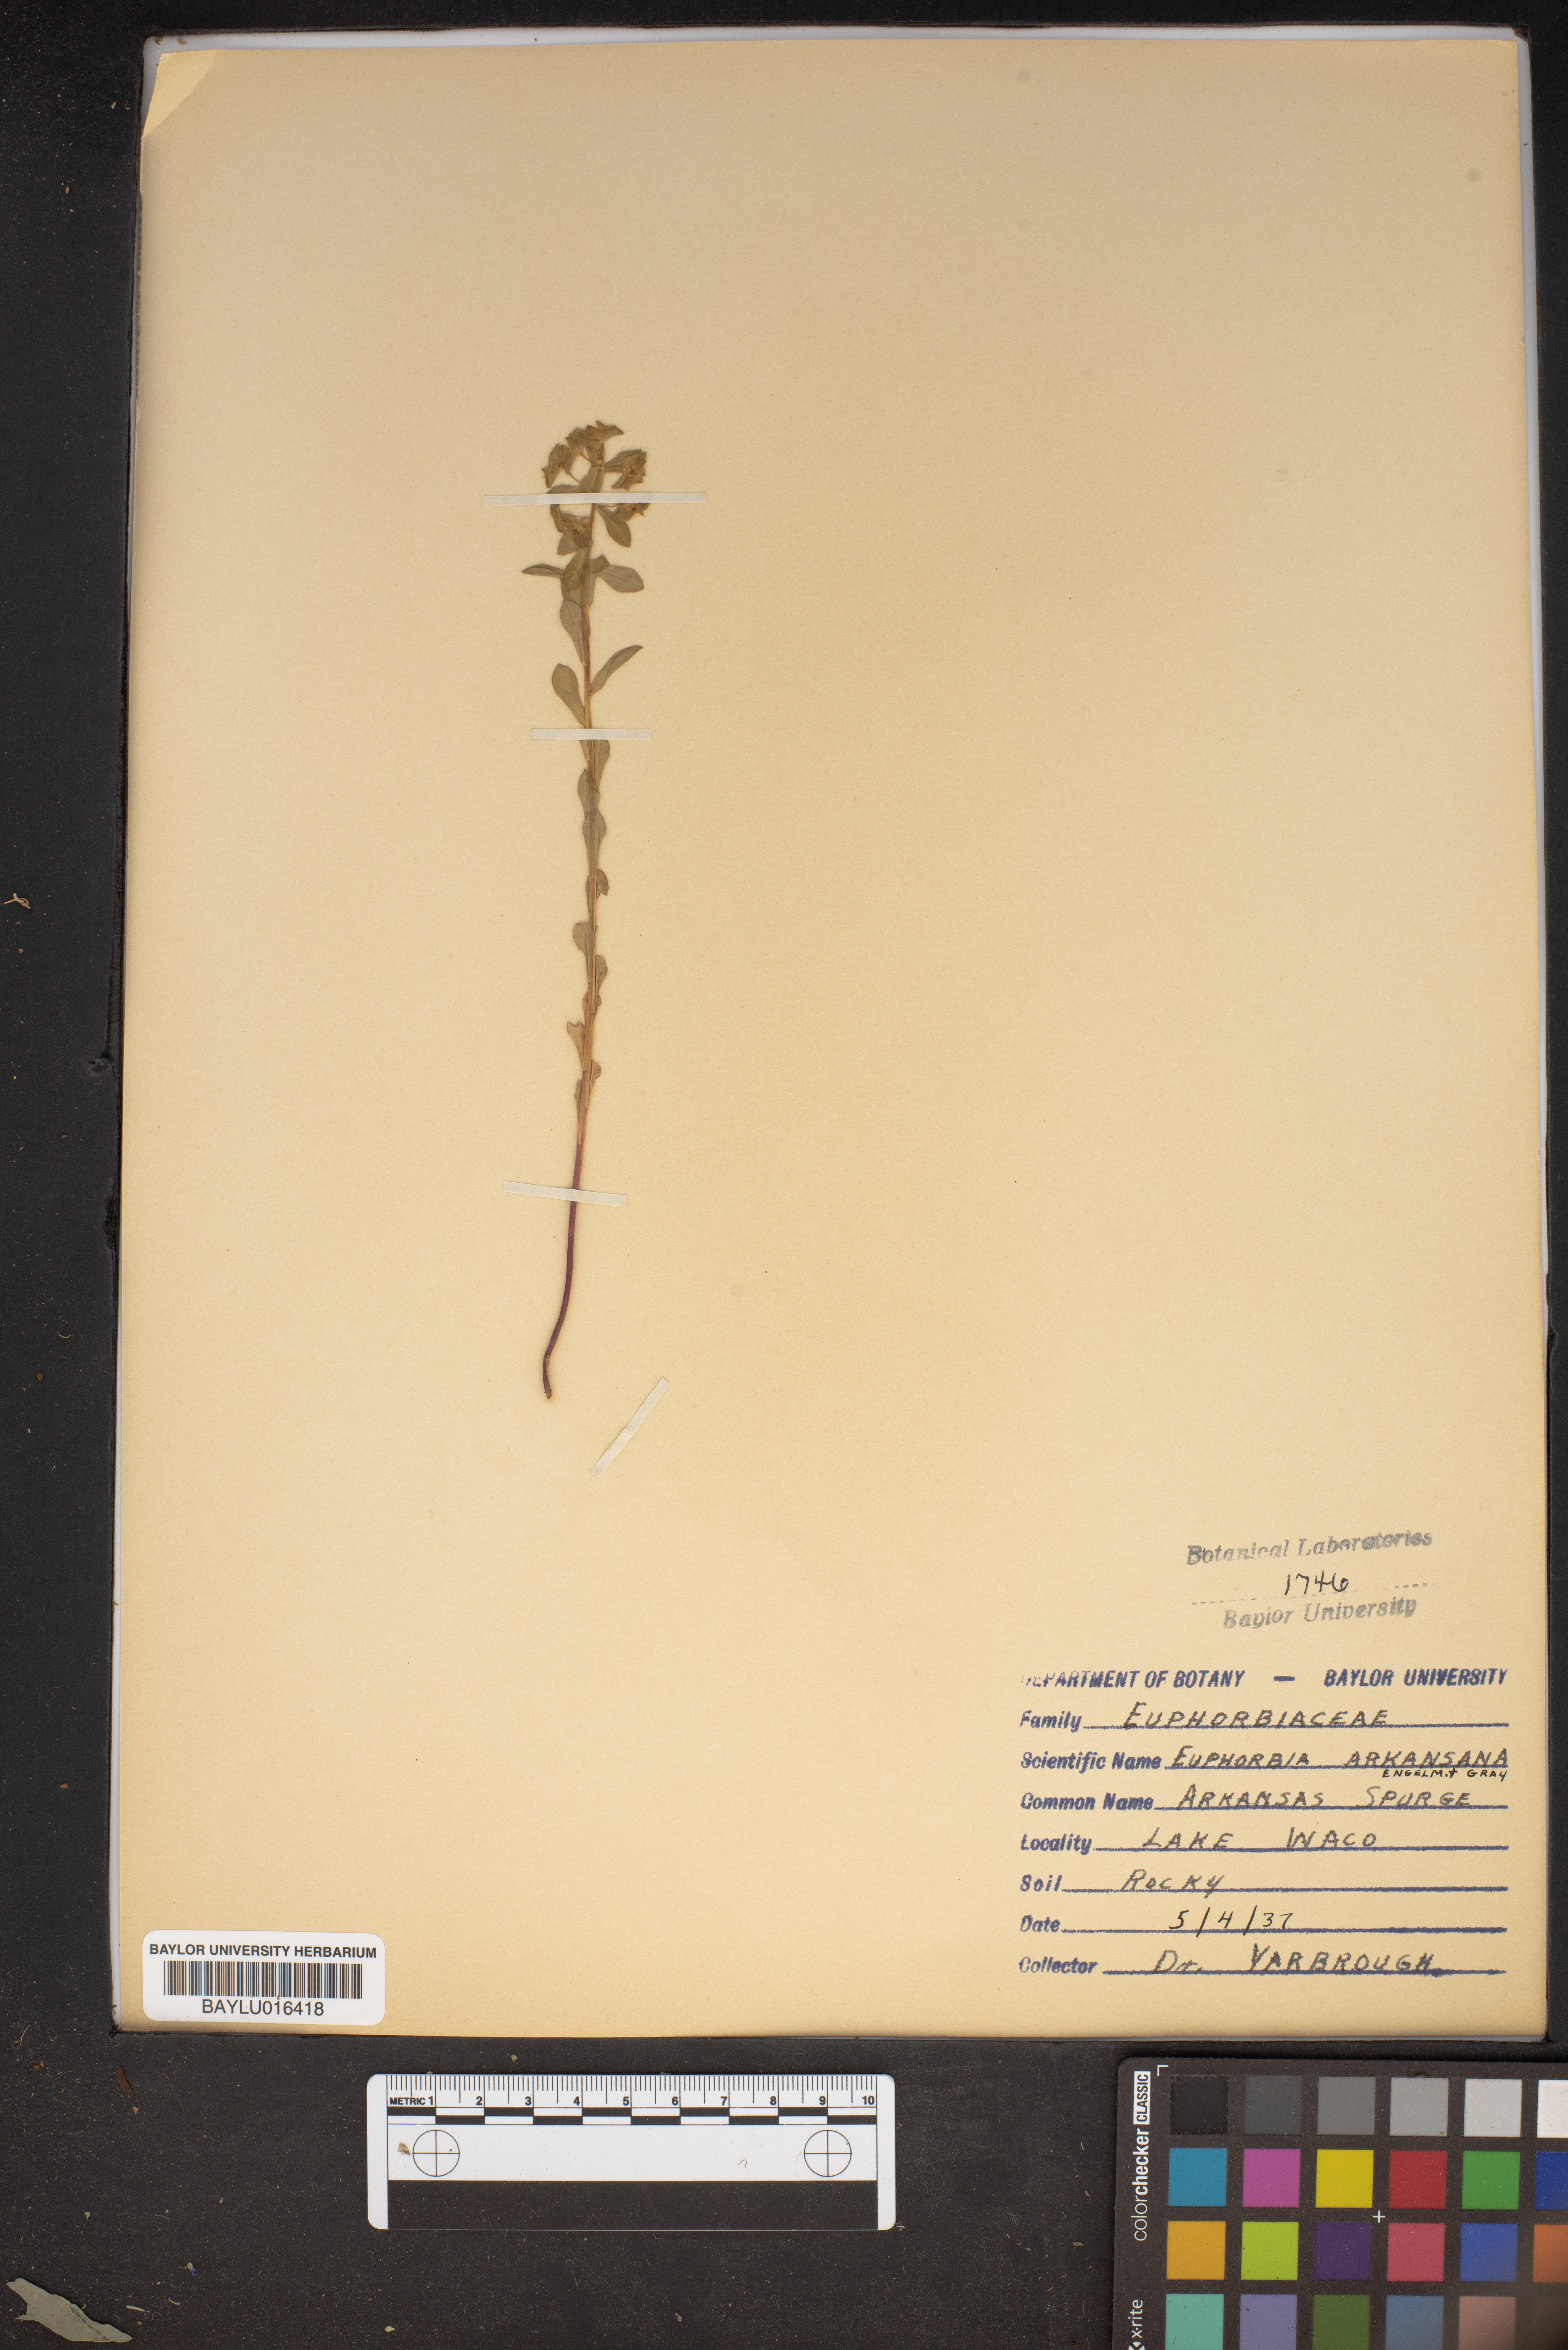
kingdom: Plantae
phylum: Tracheophyta
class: Magnoliopsida
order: Malpighiales
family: Euphorbiaceae
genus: Euphorbia
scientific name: Euphorbia spathulata
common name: Blunt spurge
